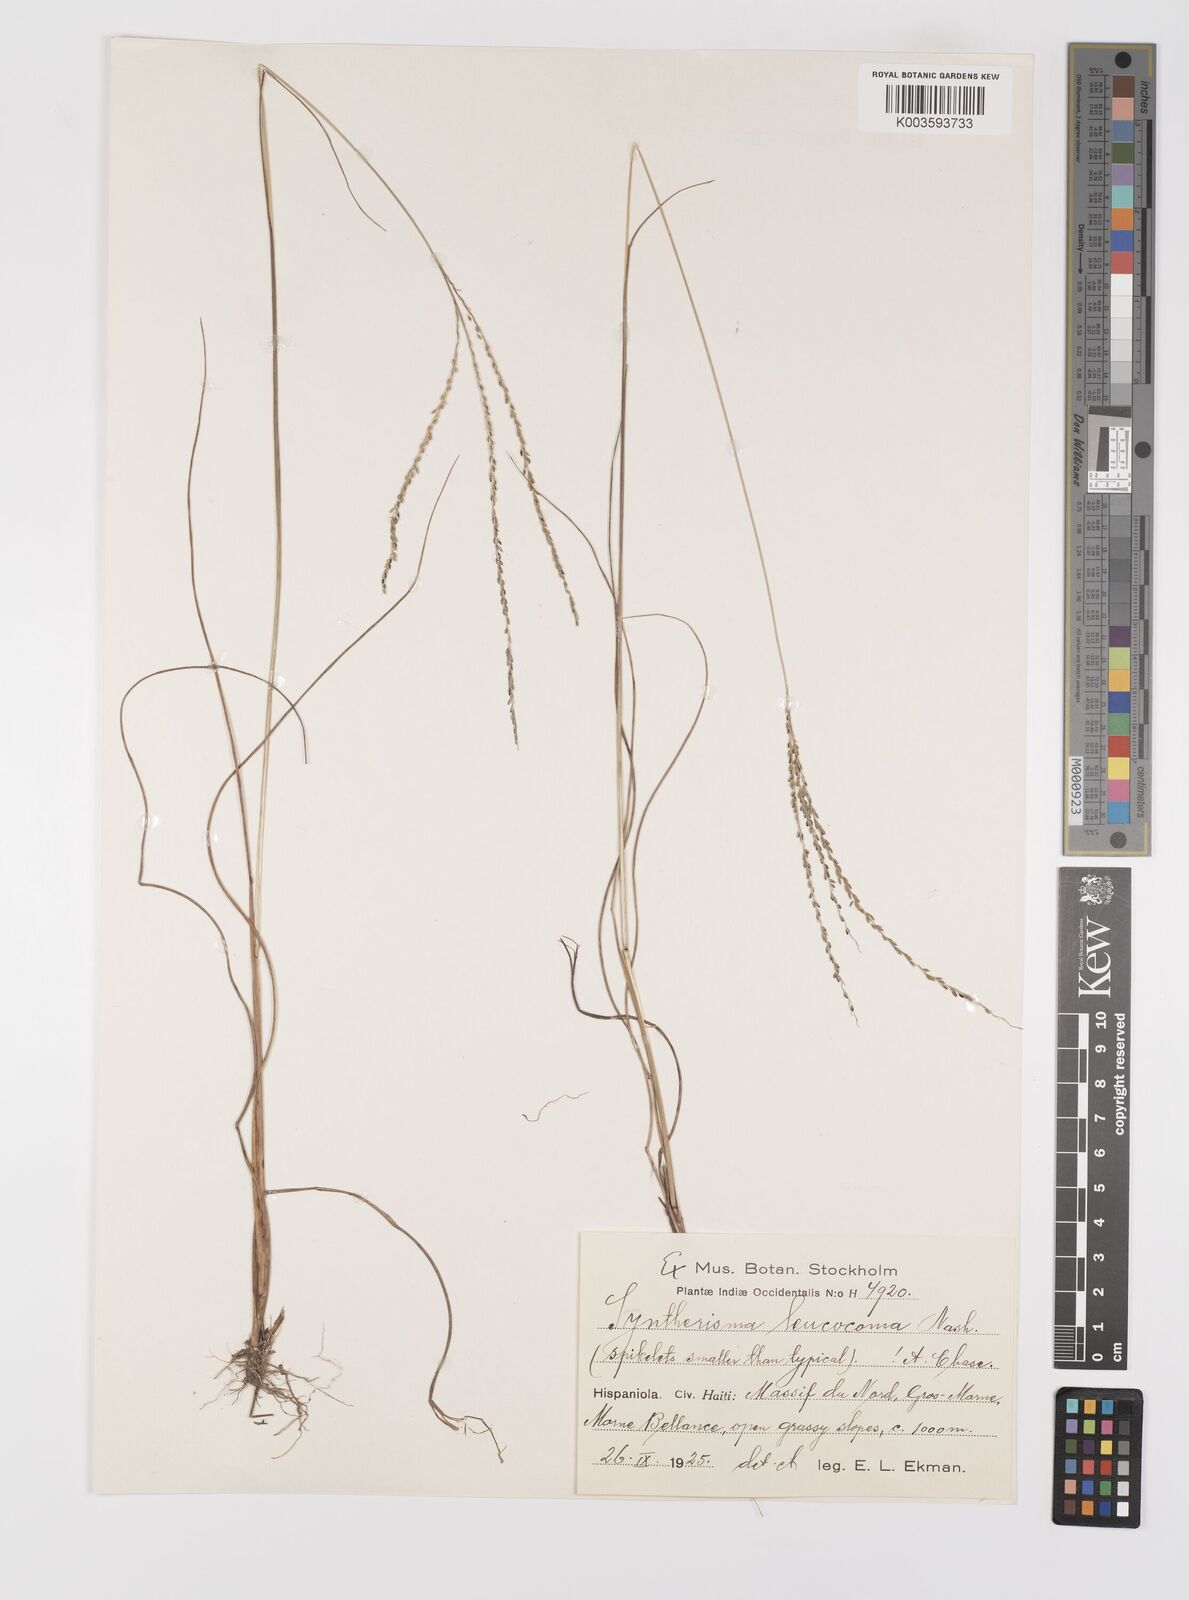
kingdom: Plantae
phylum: Tracheophyta
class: Liliopsida
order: Poales
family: Poaceae
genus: Digitaria
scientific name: Digitaria villosa
